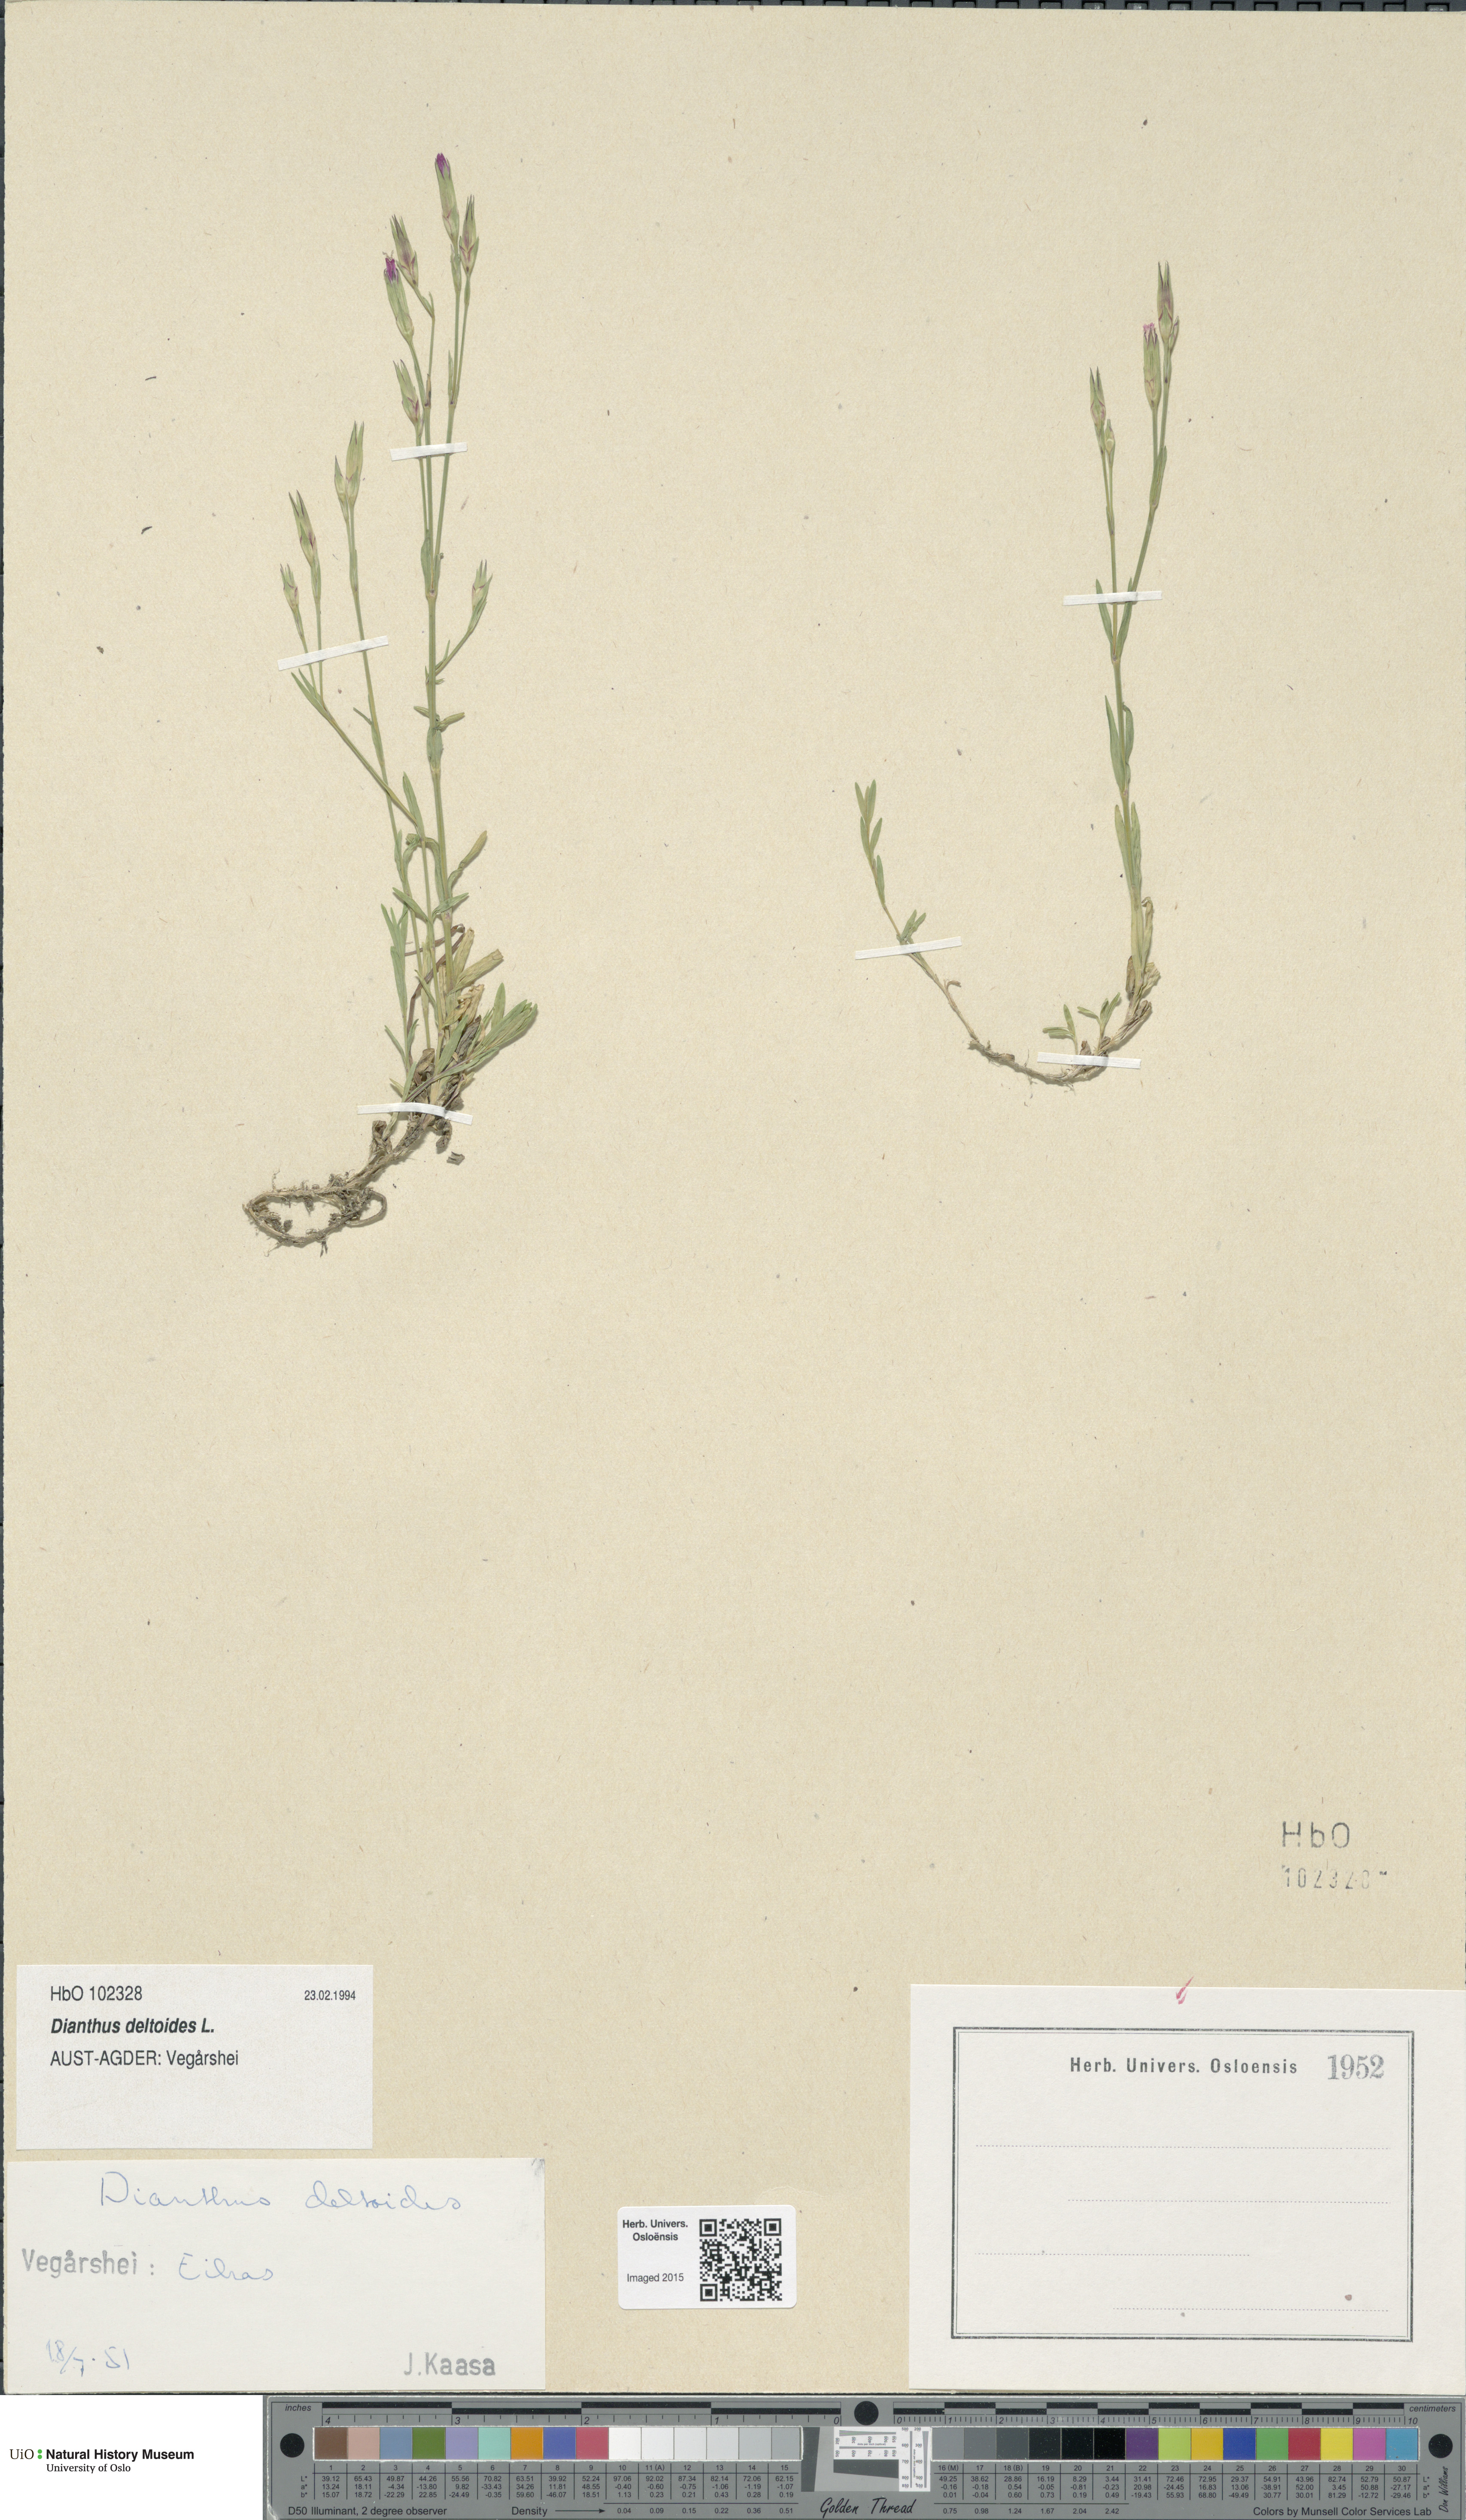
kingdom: Plantae
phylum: Tracheophyta
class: Magnoliopsida
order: Caryophyllales
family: Caryophyllaceae
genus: Dianthus
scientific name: Dianthus deltoides
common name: Maiden pink
